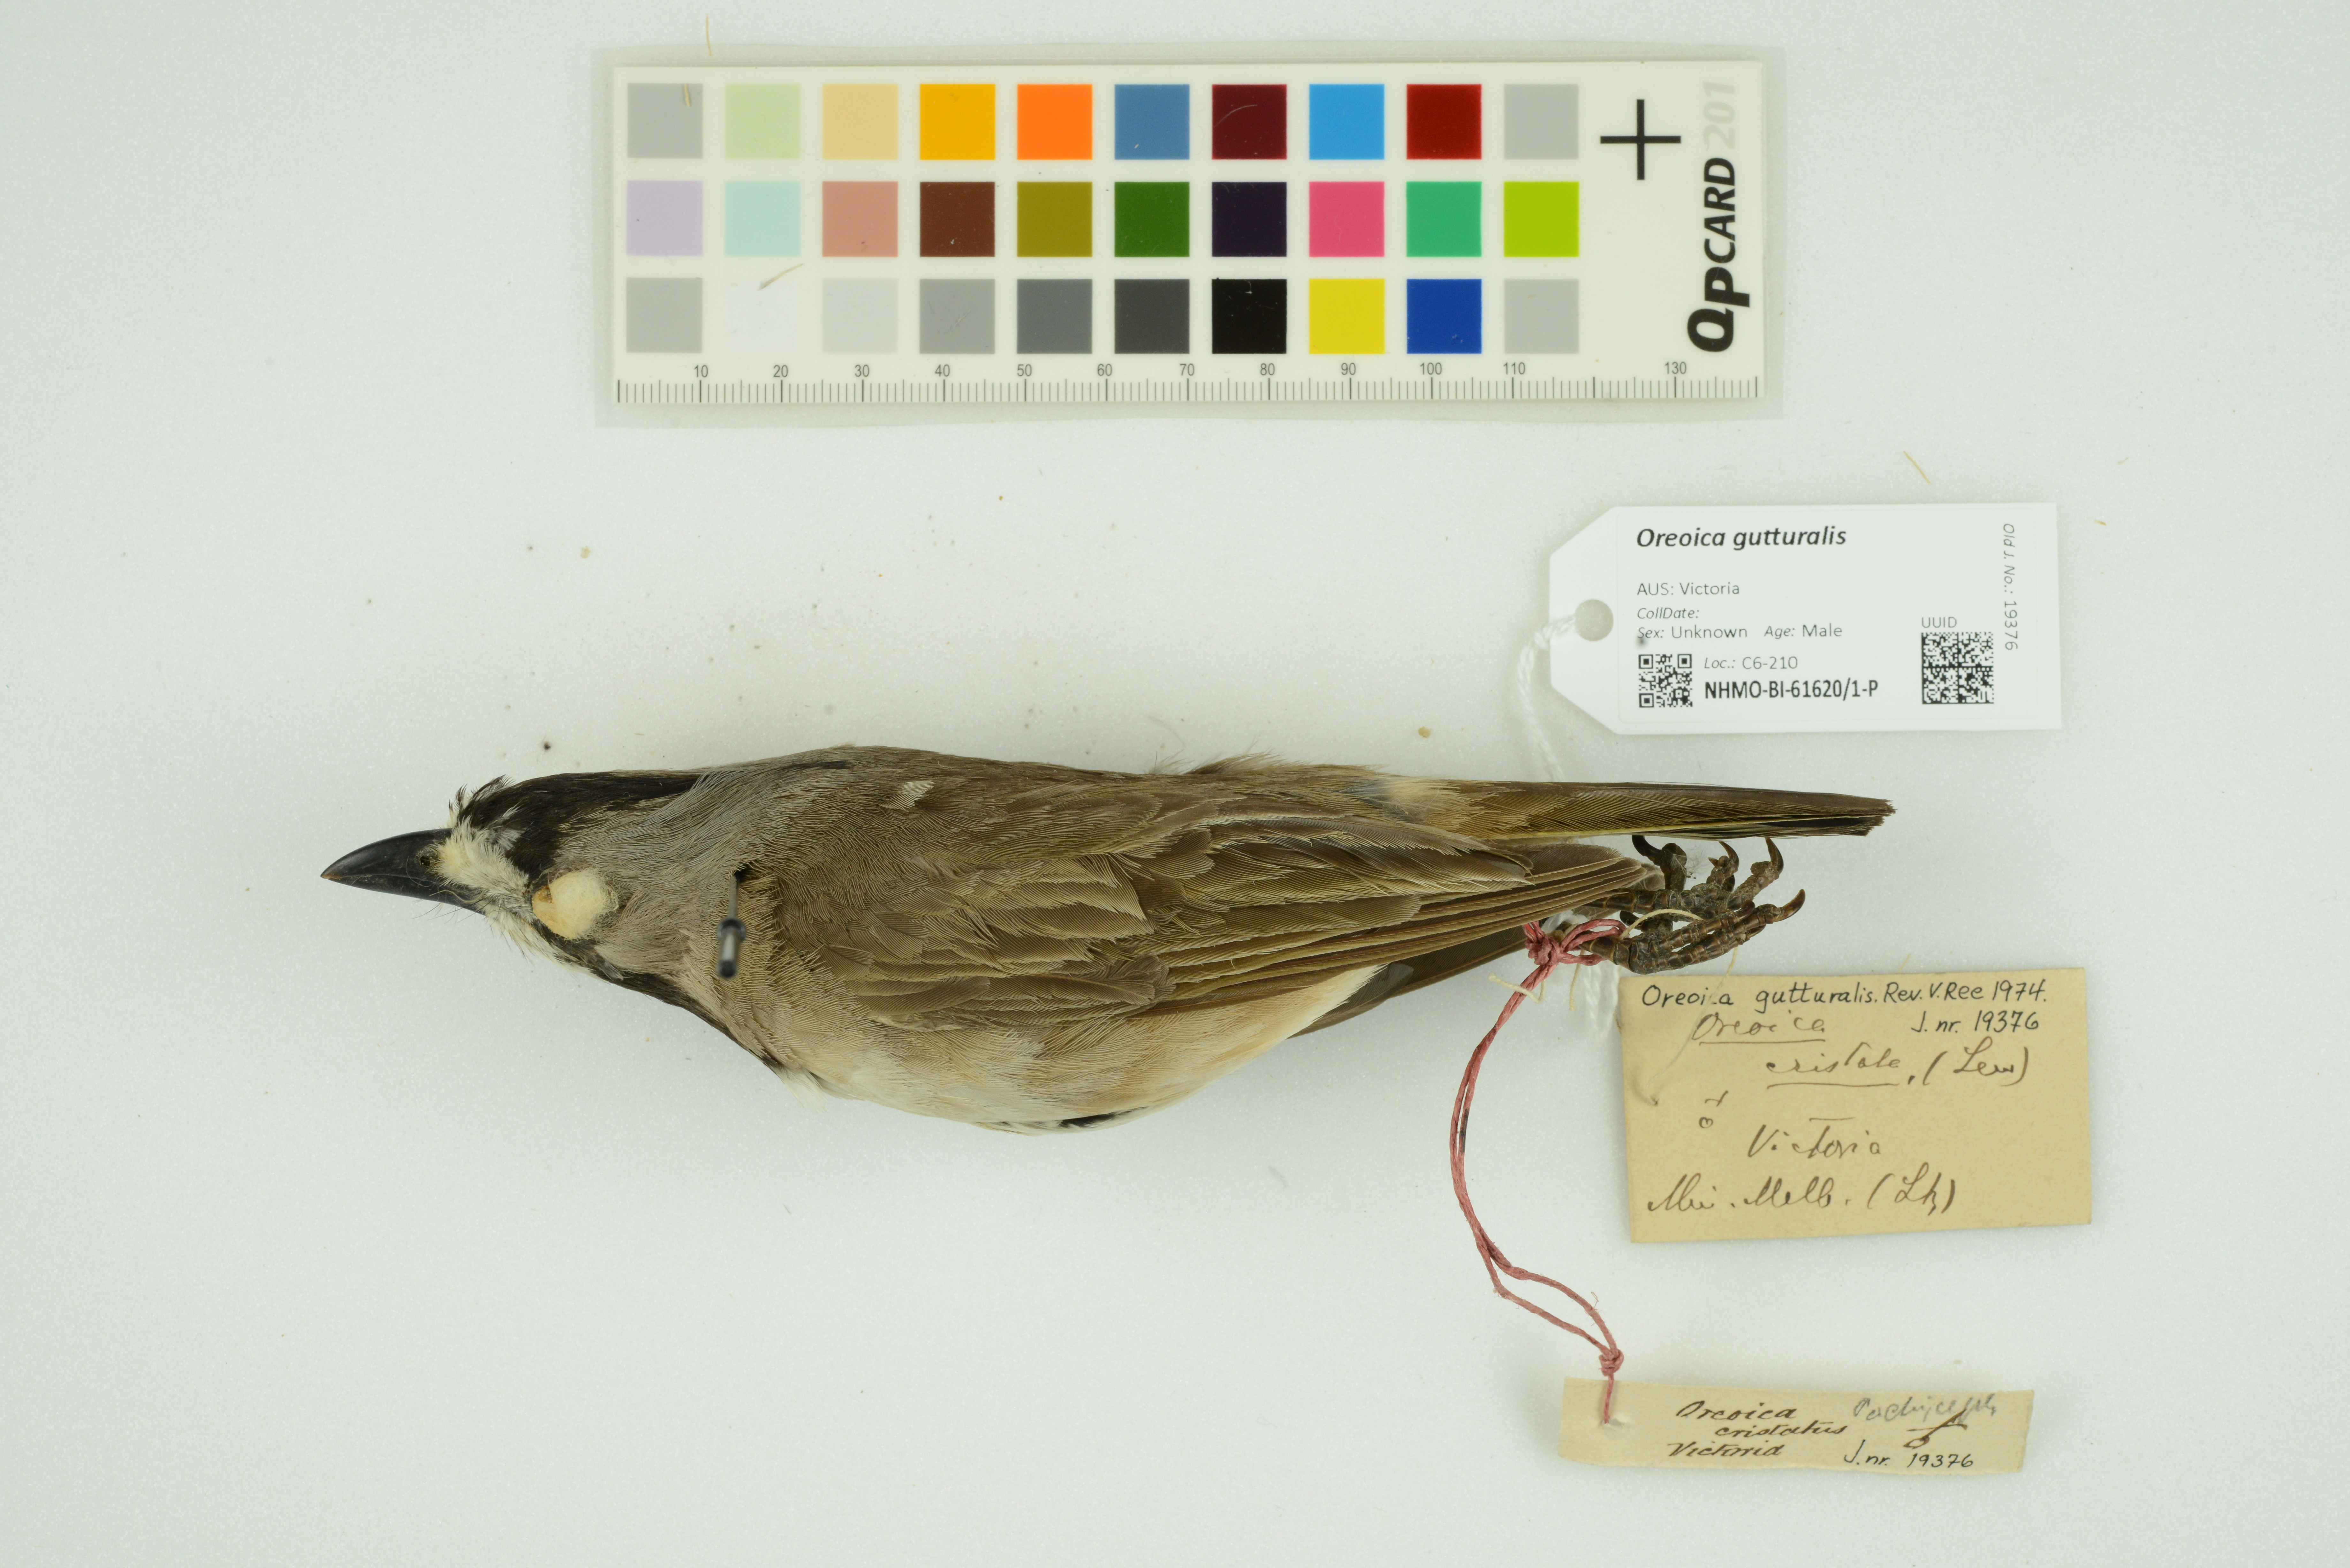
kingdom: Animalia
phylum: Chordata
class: Aves
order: Passeriformes
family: Oreoicidae
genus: Oreoica
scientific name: Oreoica gutturalis
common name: Crested bellbird
